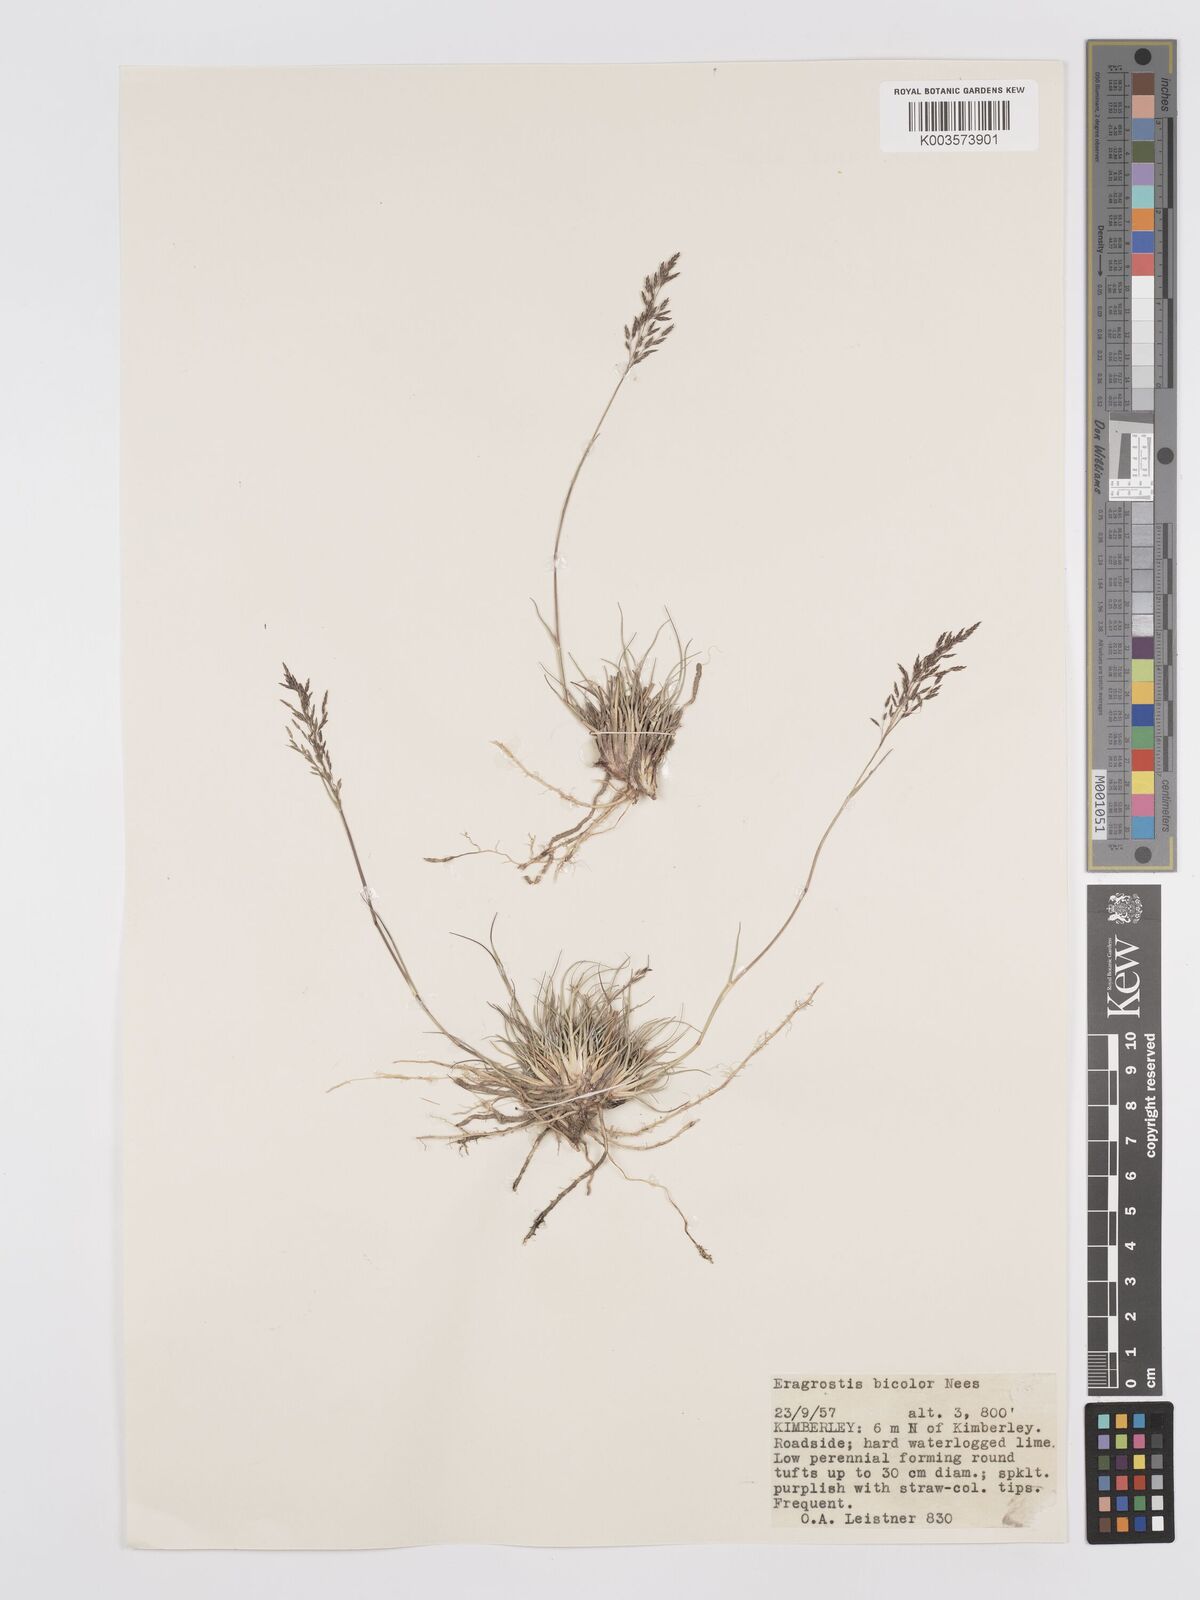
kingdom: Plantae
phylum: Tracheophyta
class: Liliopsida
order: Poales
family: Poaceae
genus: Eragrostis
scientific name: Eragrostis
